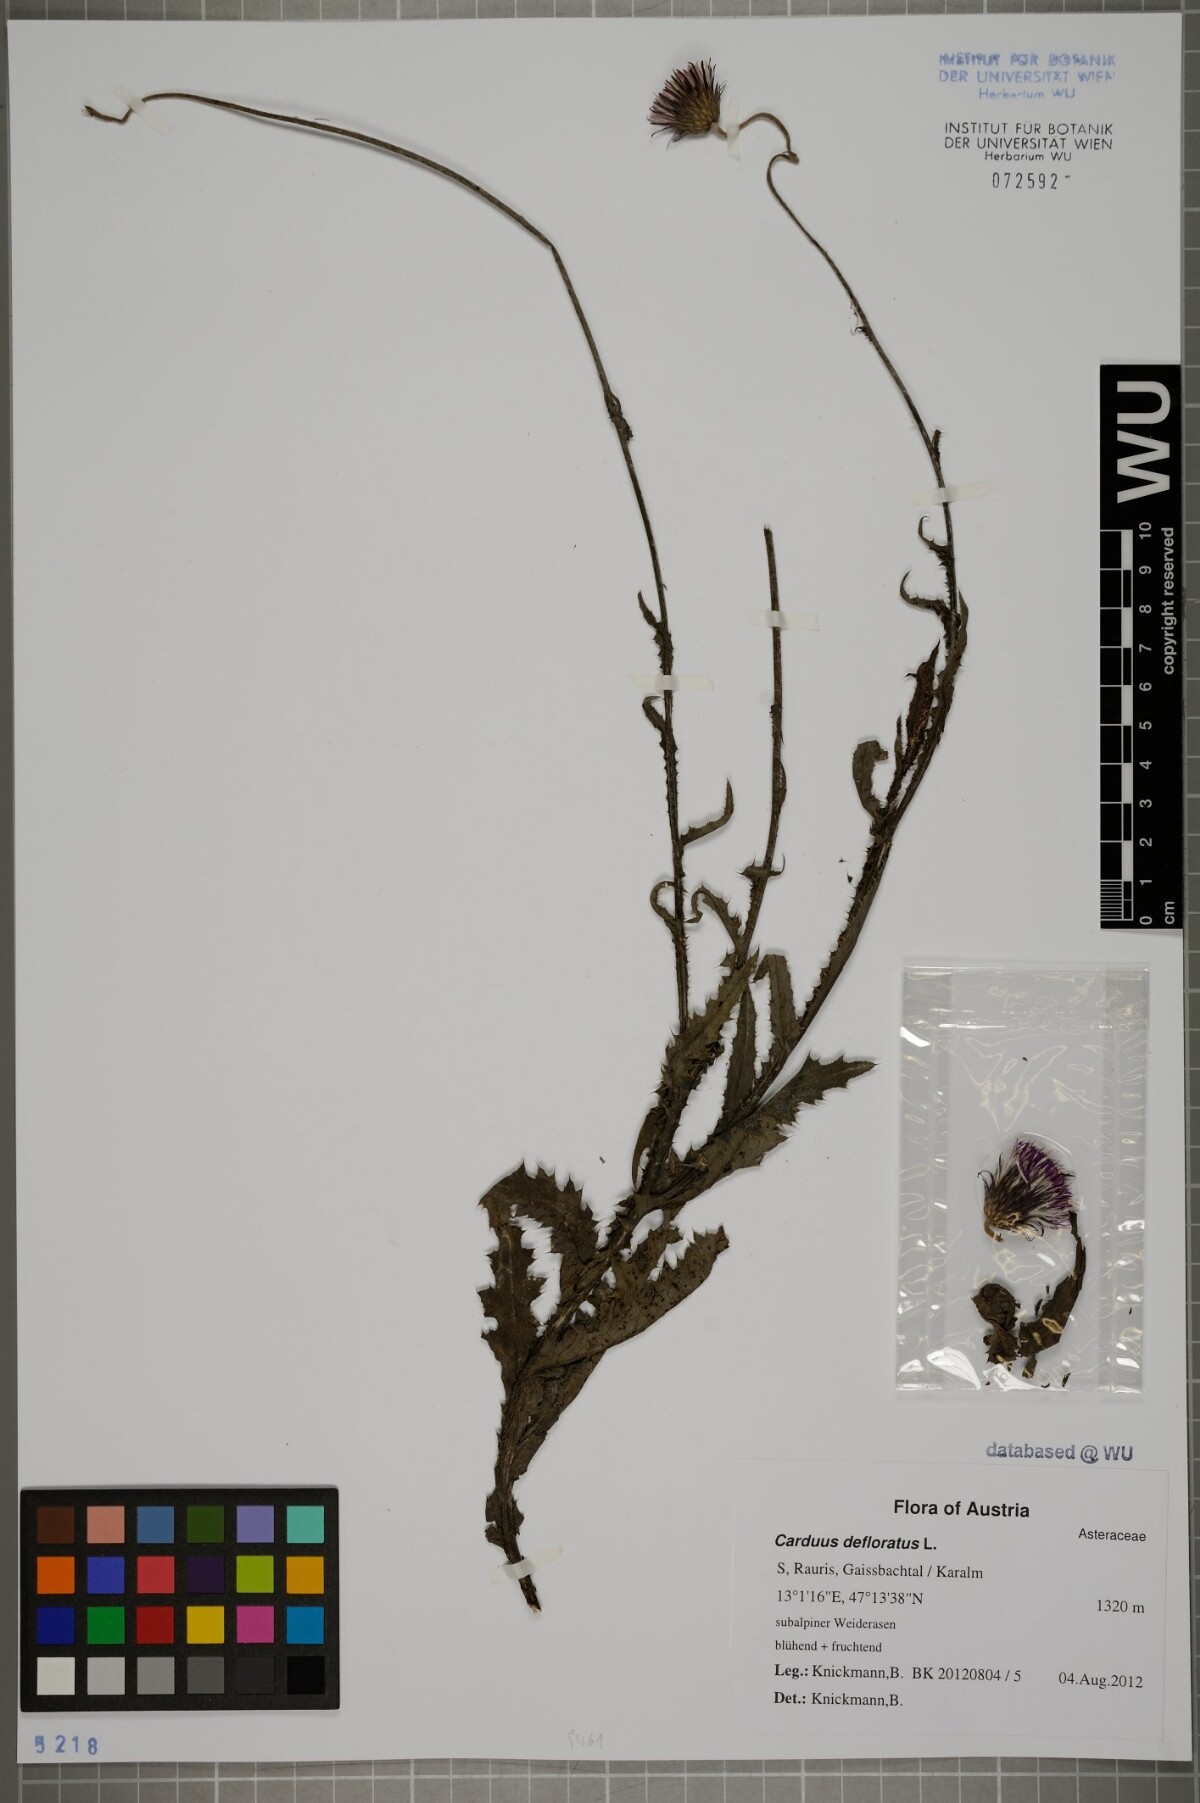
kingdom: Plantae
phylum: Tracheophyta
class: Magnoliopsida
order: Asterales
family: Asteraceae
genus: Carduus
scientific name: Carduus defloratus
